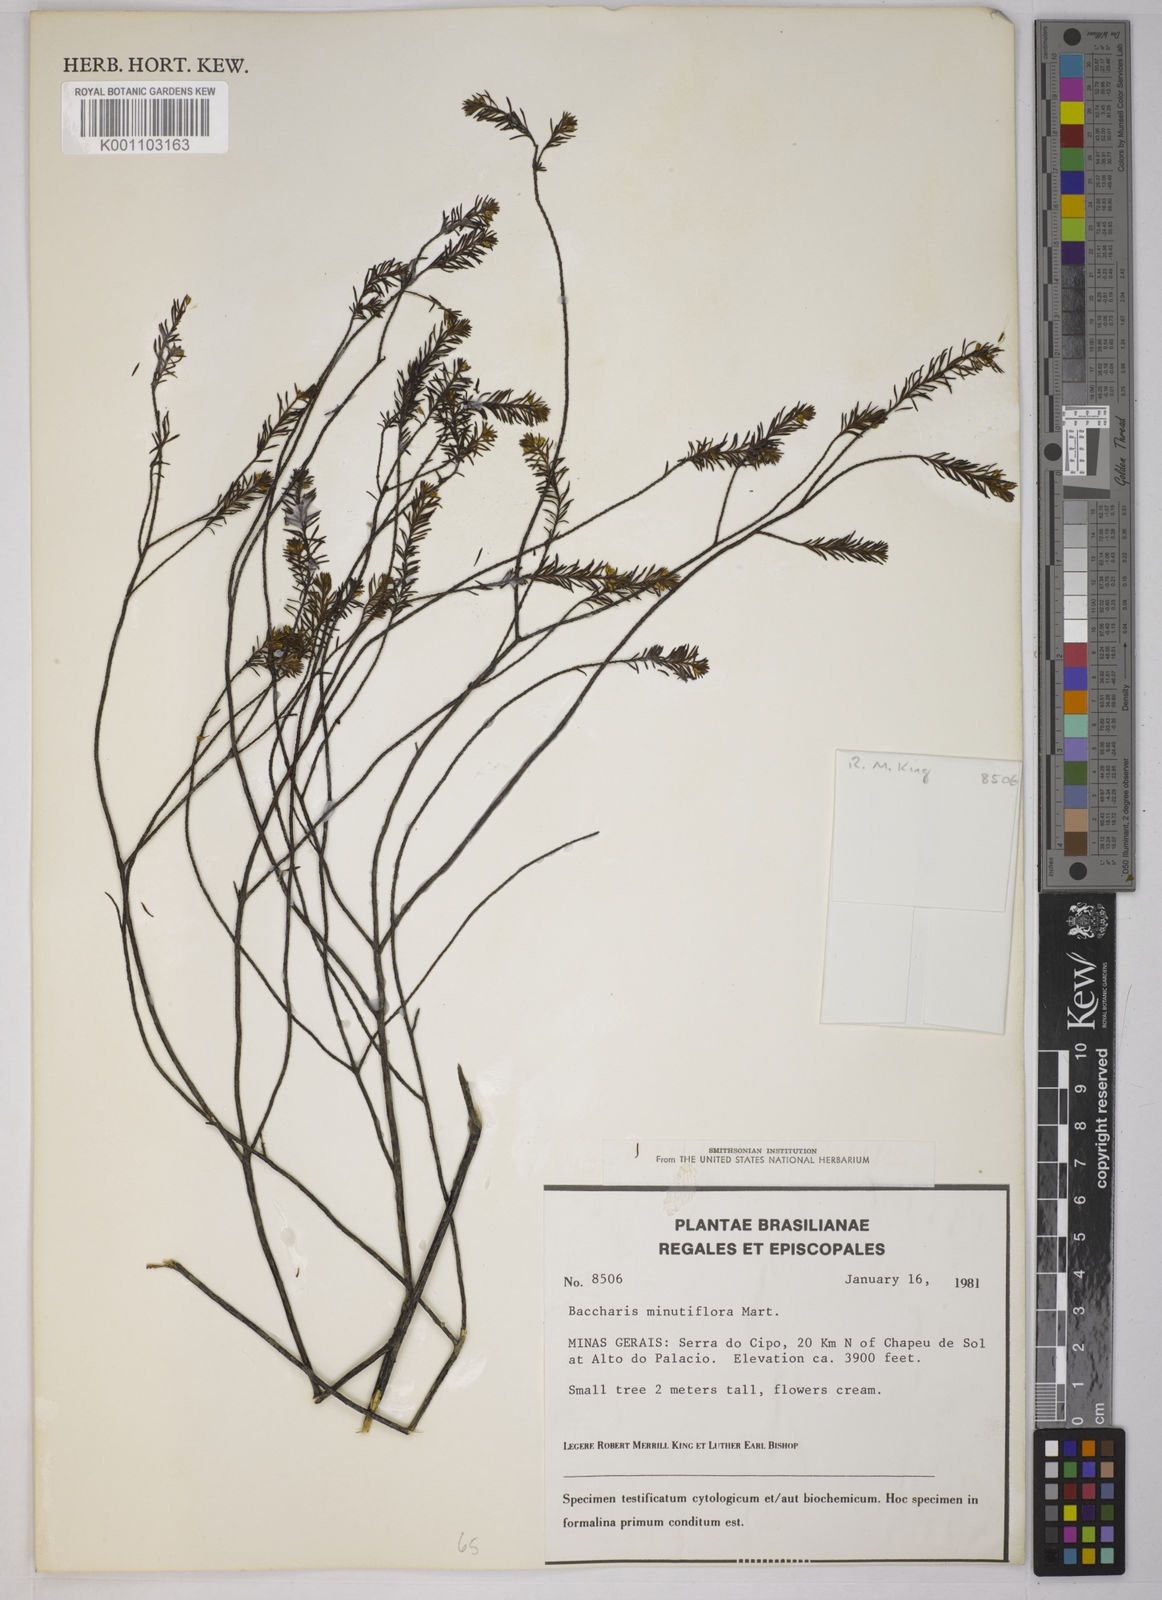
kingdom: Plantae
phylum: Tracheophyta
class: Magnoliopsida
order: Asterales
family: Asteraceae
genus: Baccharis
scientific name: Baccharis minutiflora
